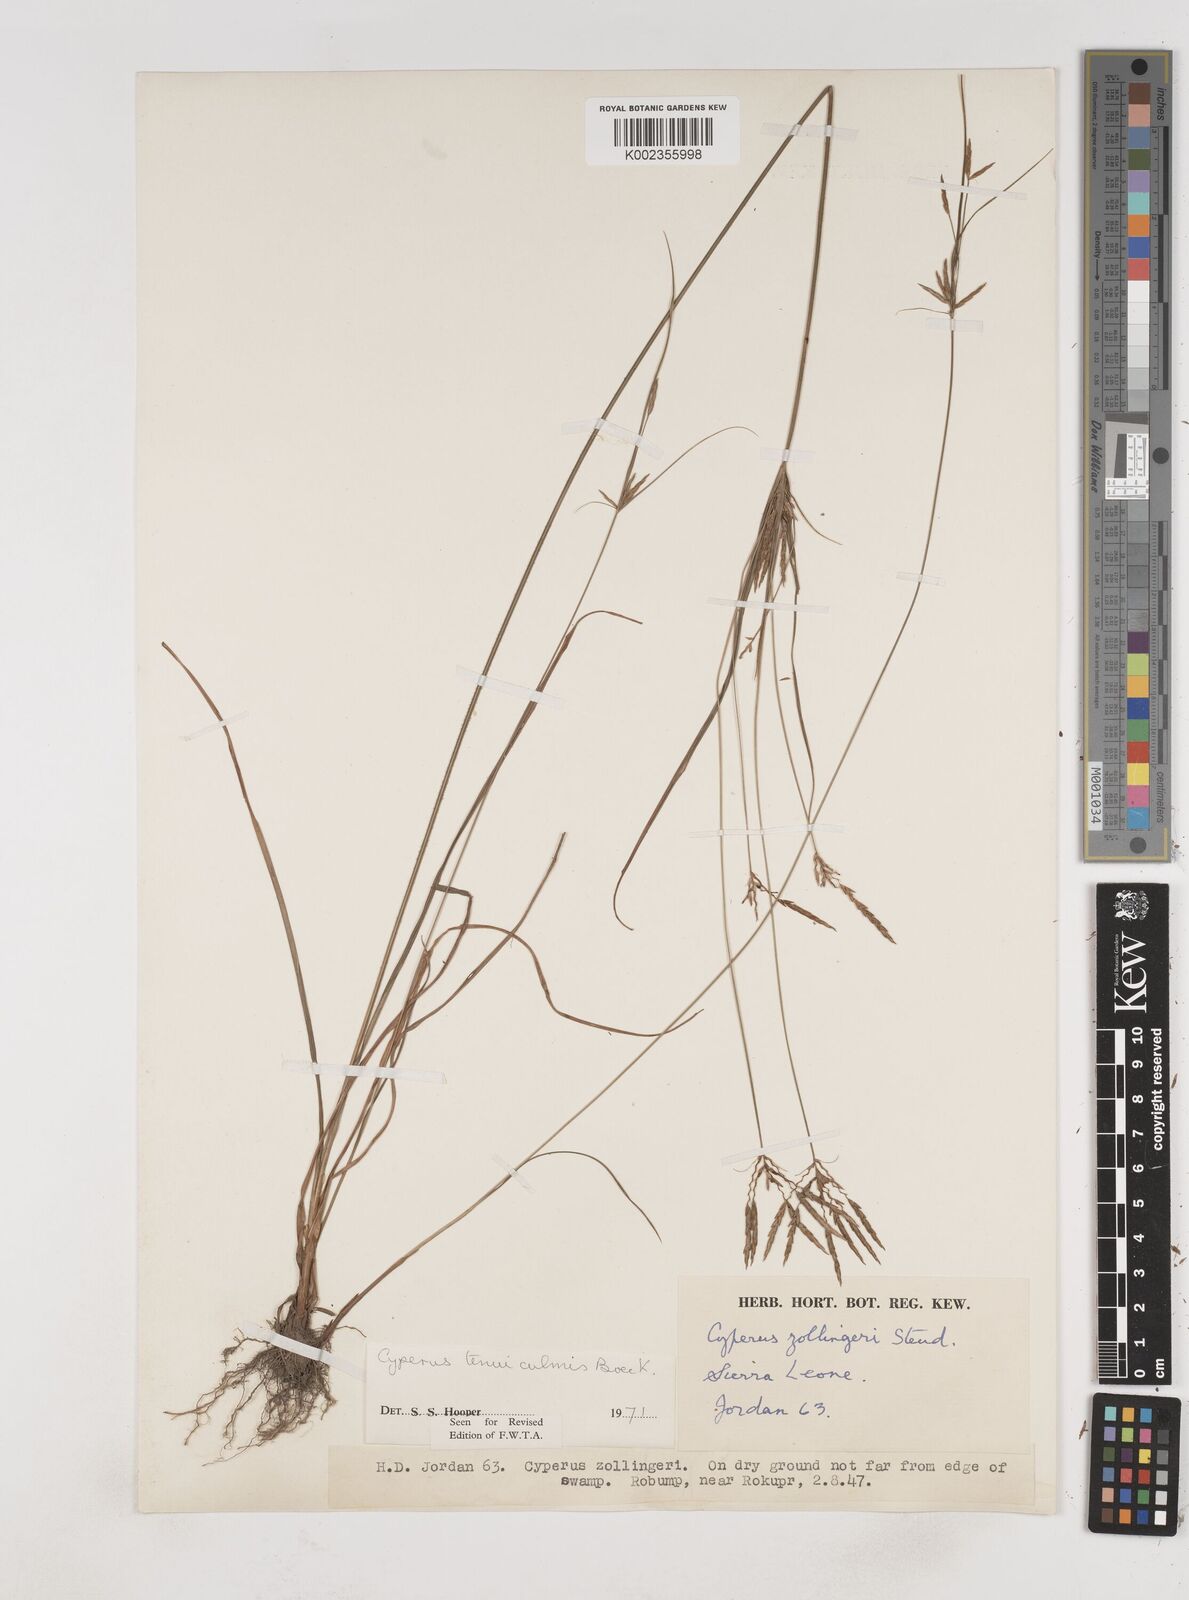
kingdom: Plantae
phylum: Tracheophyta
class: Liliopsida
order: Poales
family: Cyperaceae
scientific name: Cyperaceae
